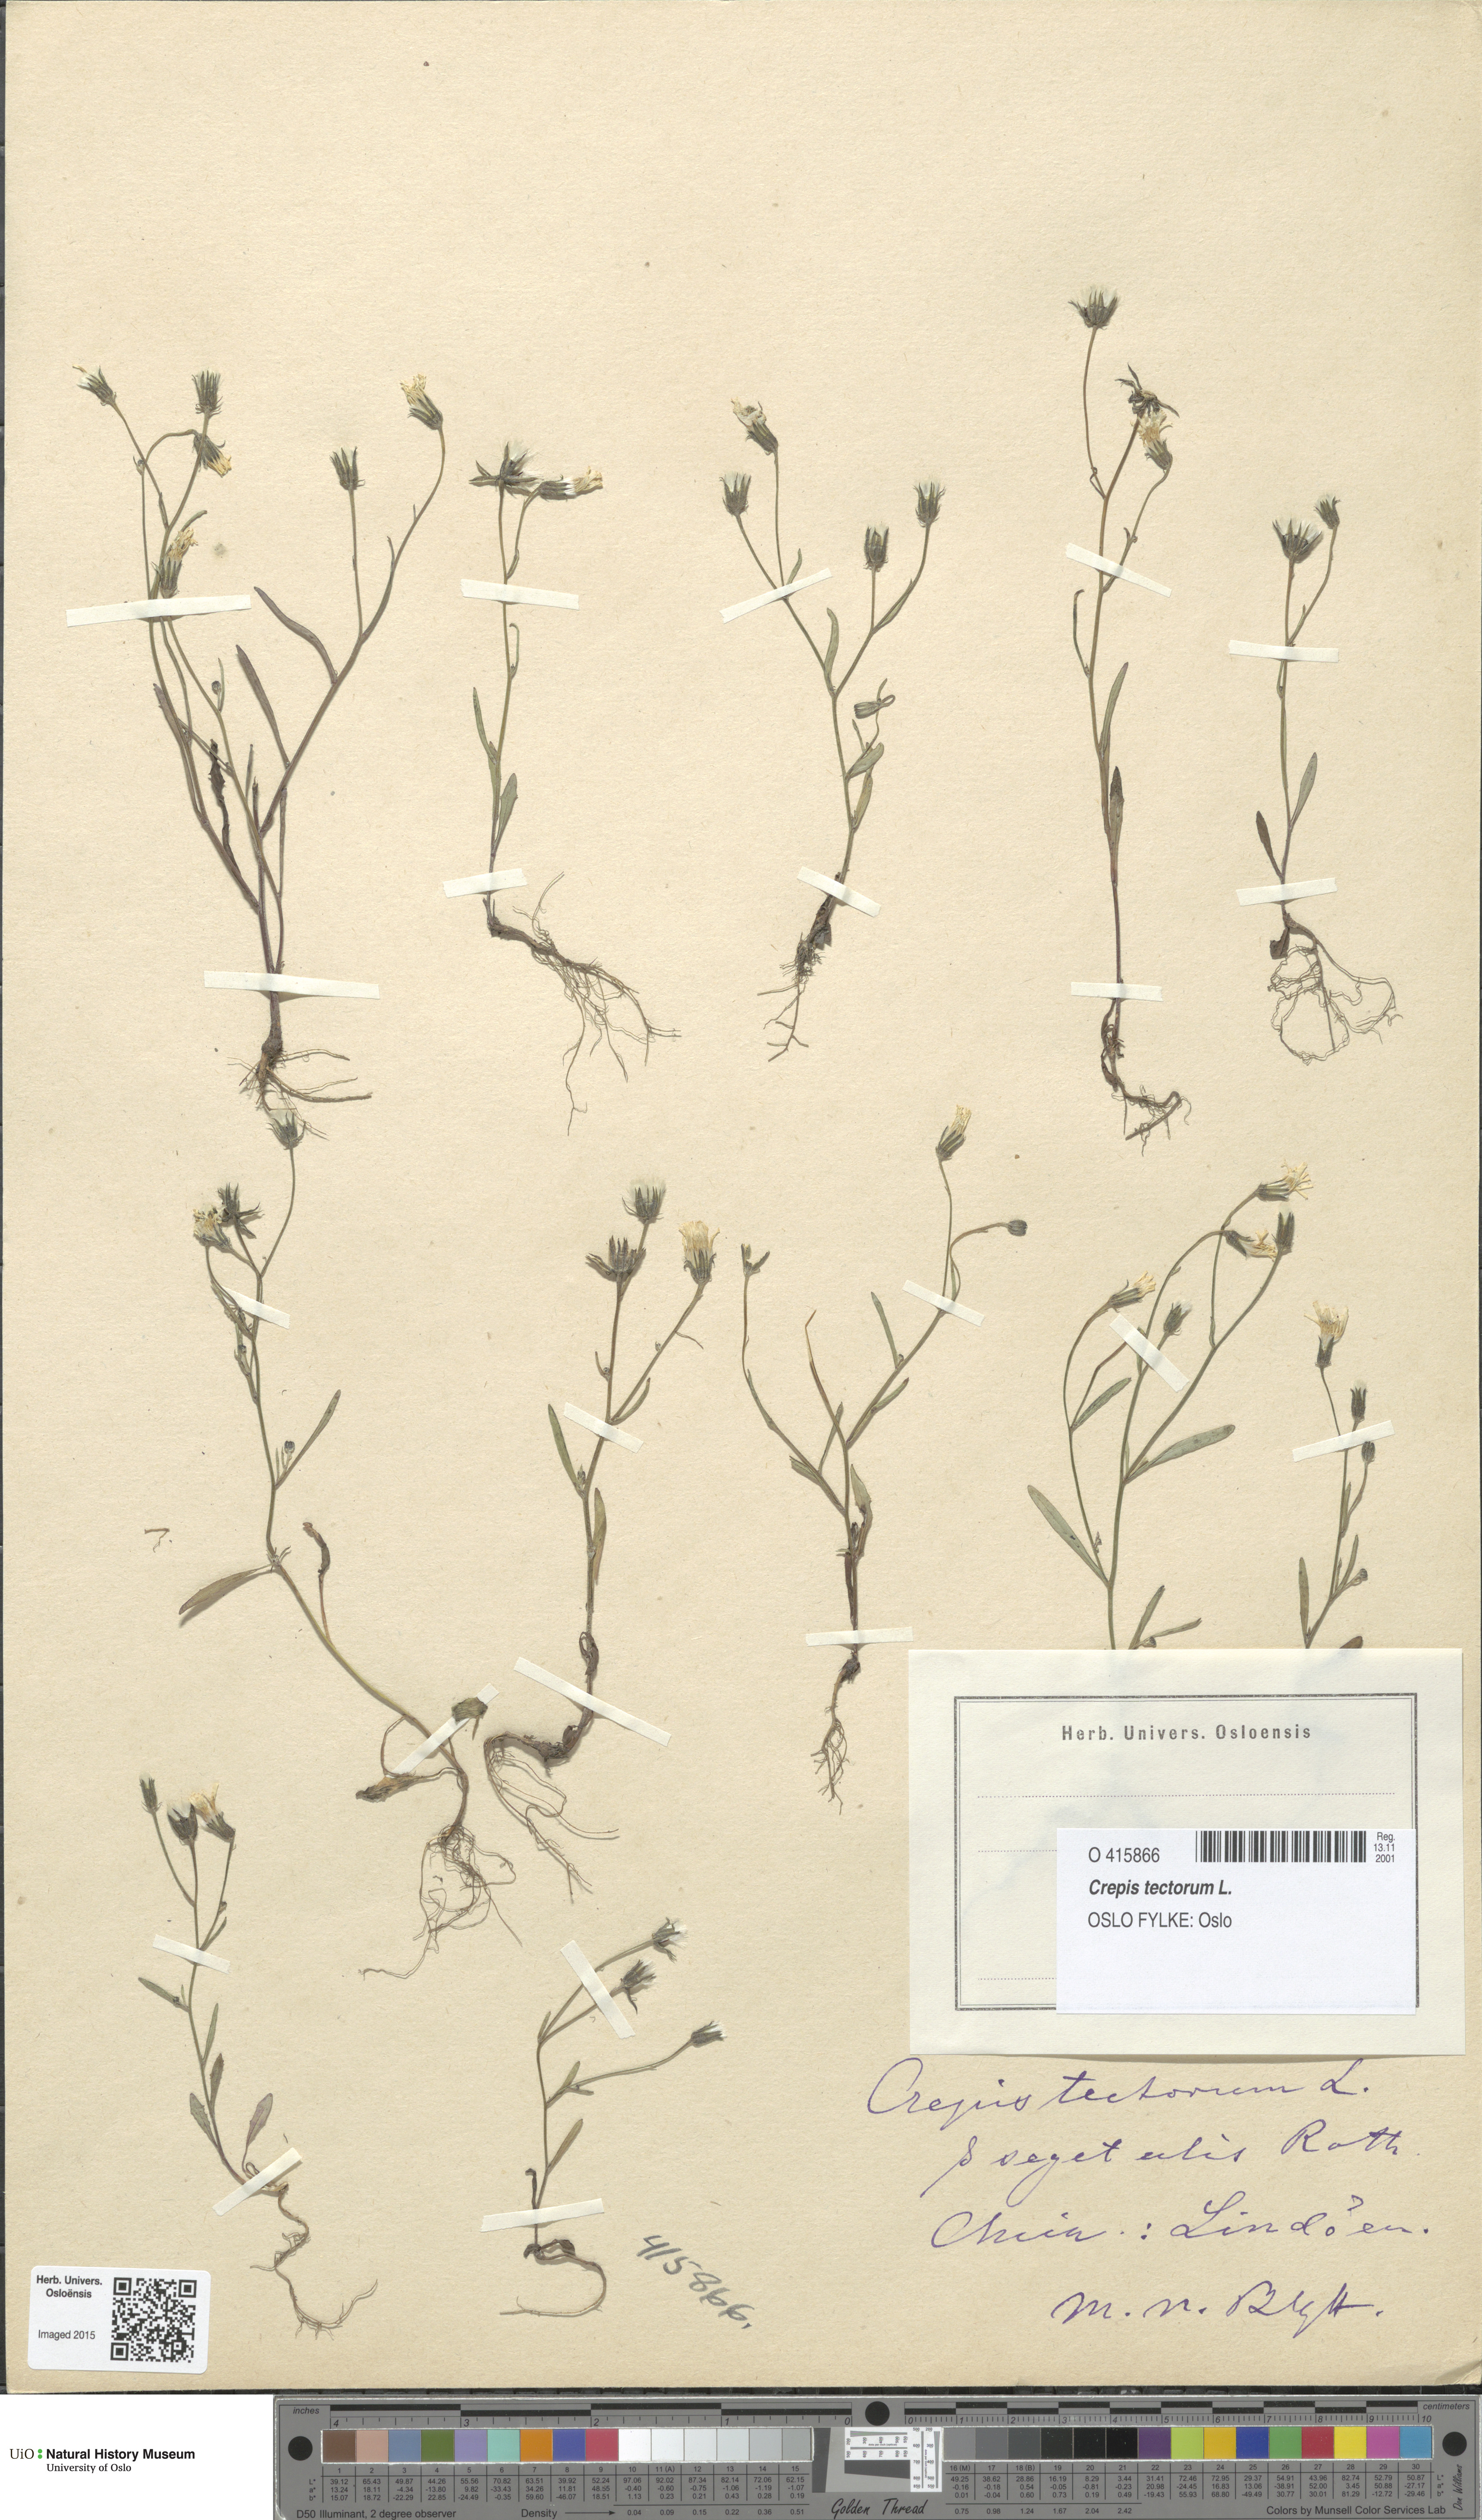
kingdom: Plantae
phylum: Tracheophyta
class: Magnoliopsida
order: Asterales
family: Asteraceae
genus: Crepis
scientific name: Crepis tectorum
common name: Narrow-leaved hawk's-beard
